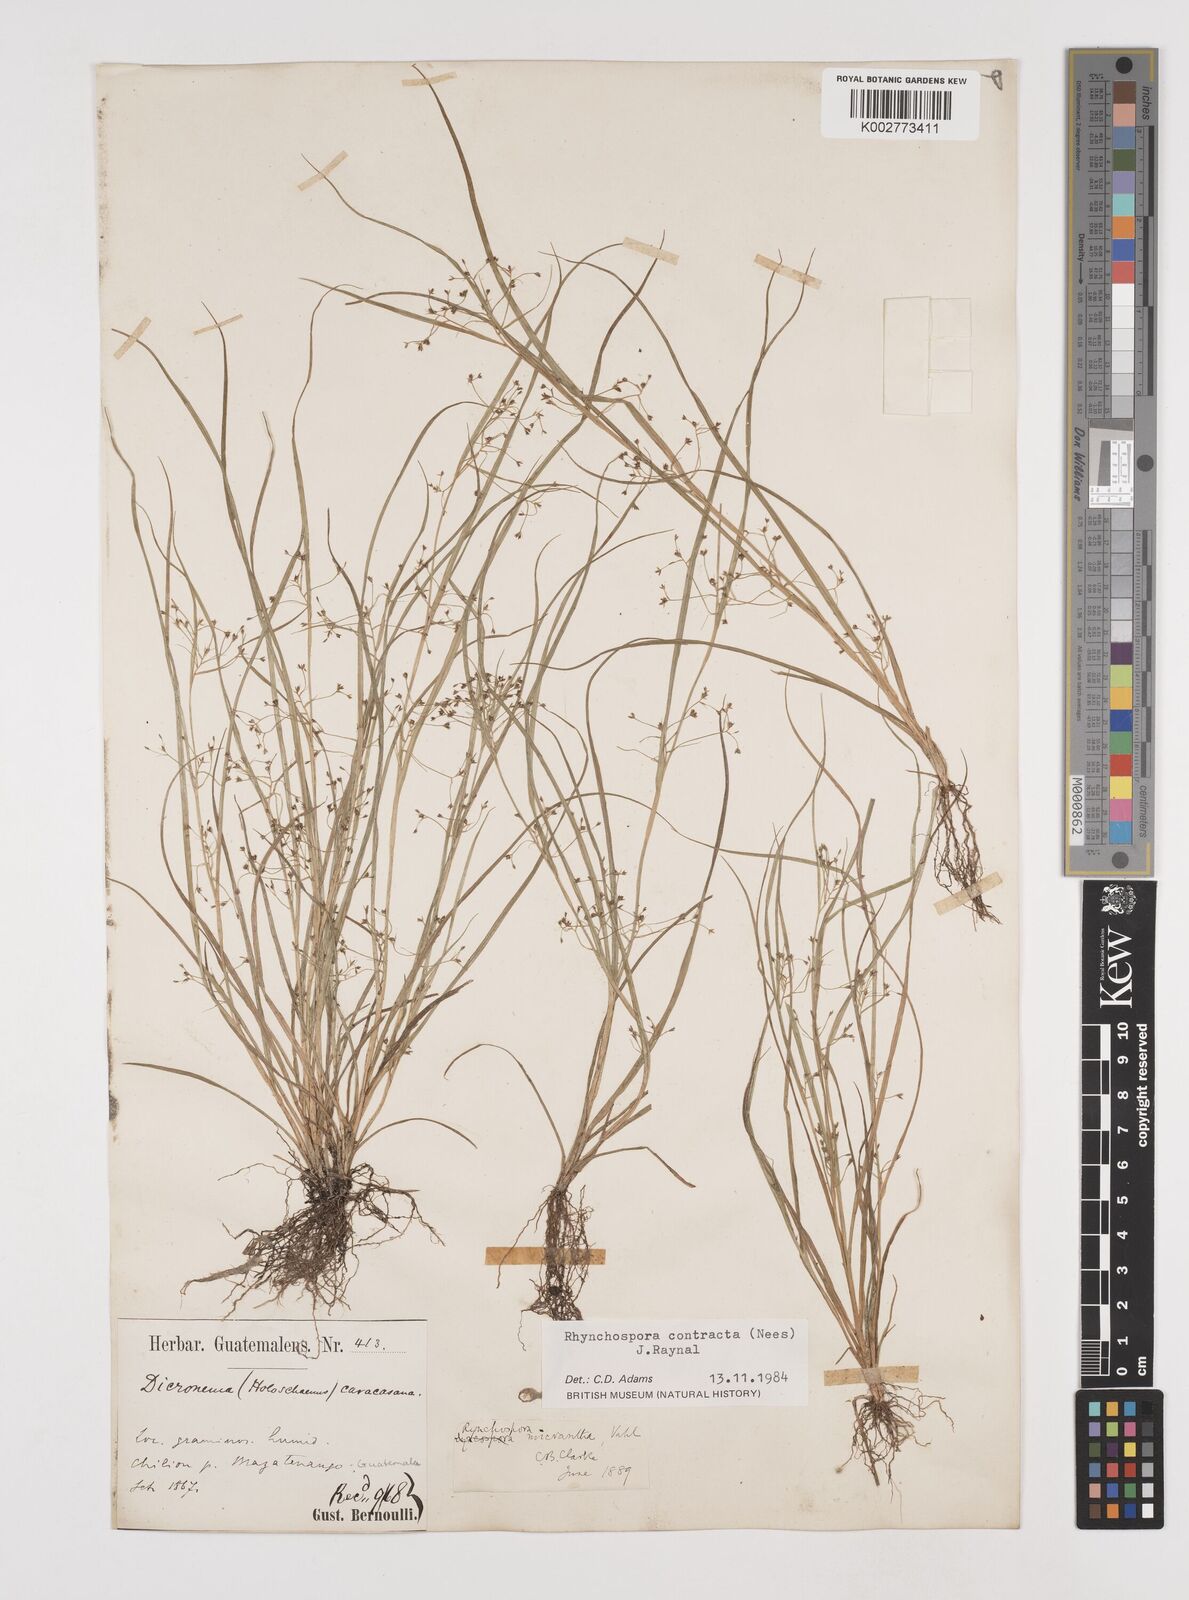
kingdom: Plantae
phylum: Tracheophyta
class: Liliopsida
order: Poales
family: Cyperaceae
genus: Rhynchospora
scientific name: Rhynchospora contracta
